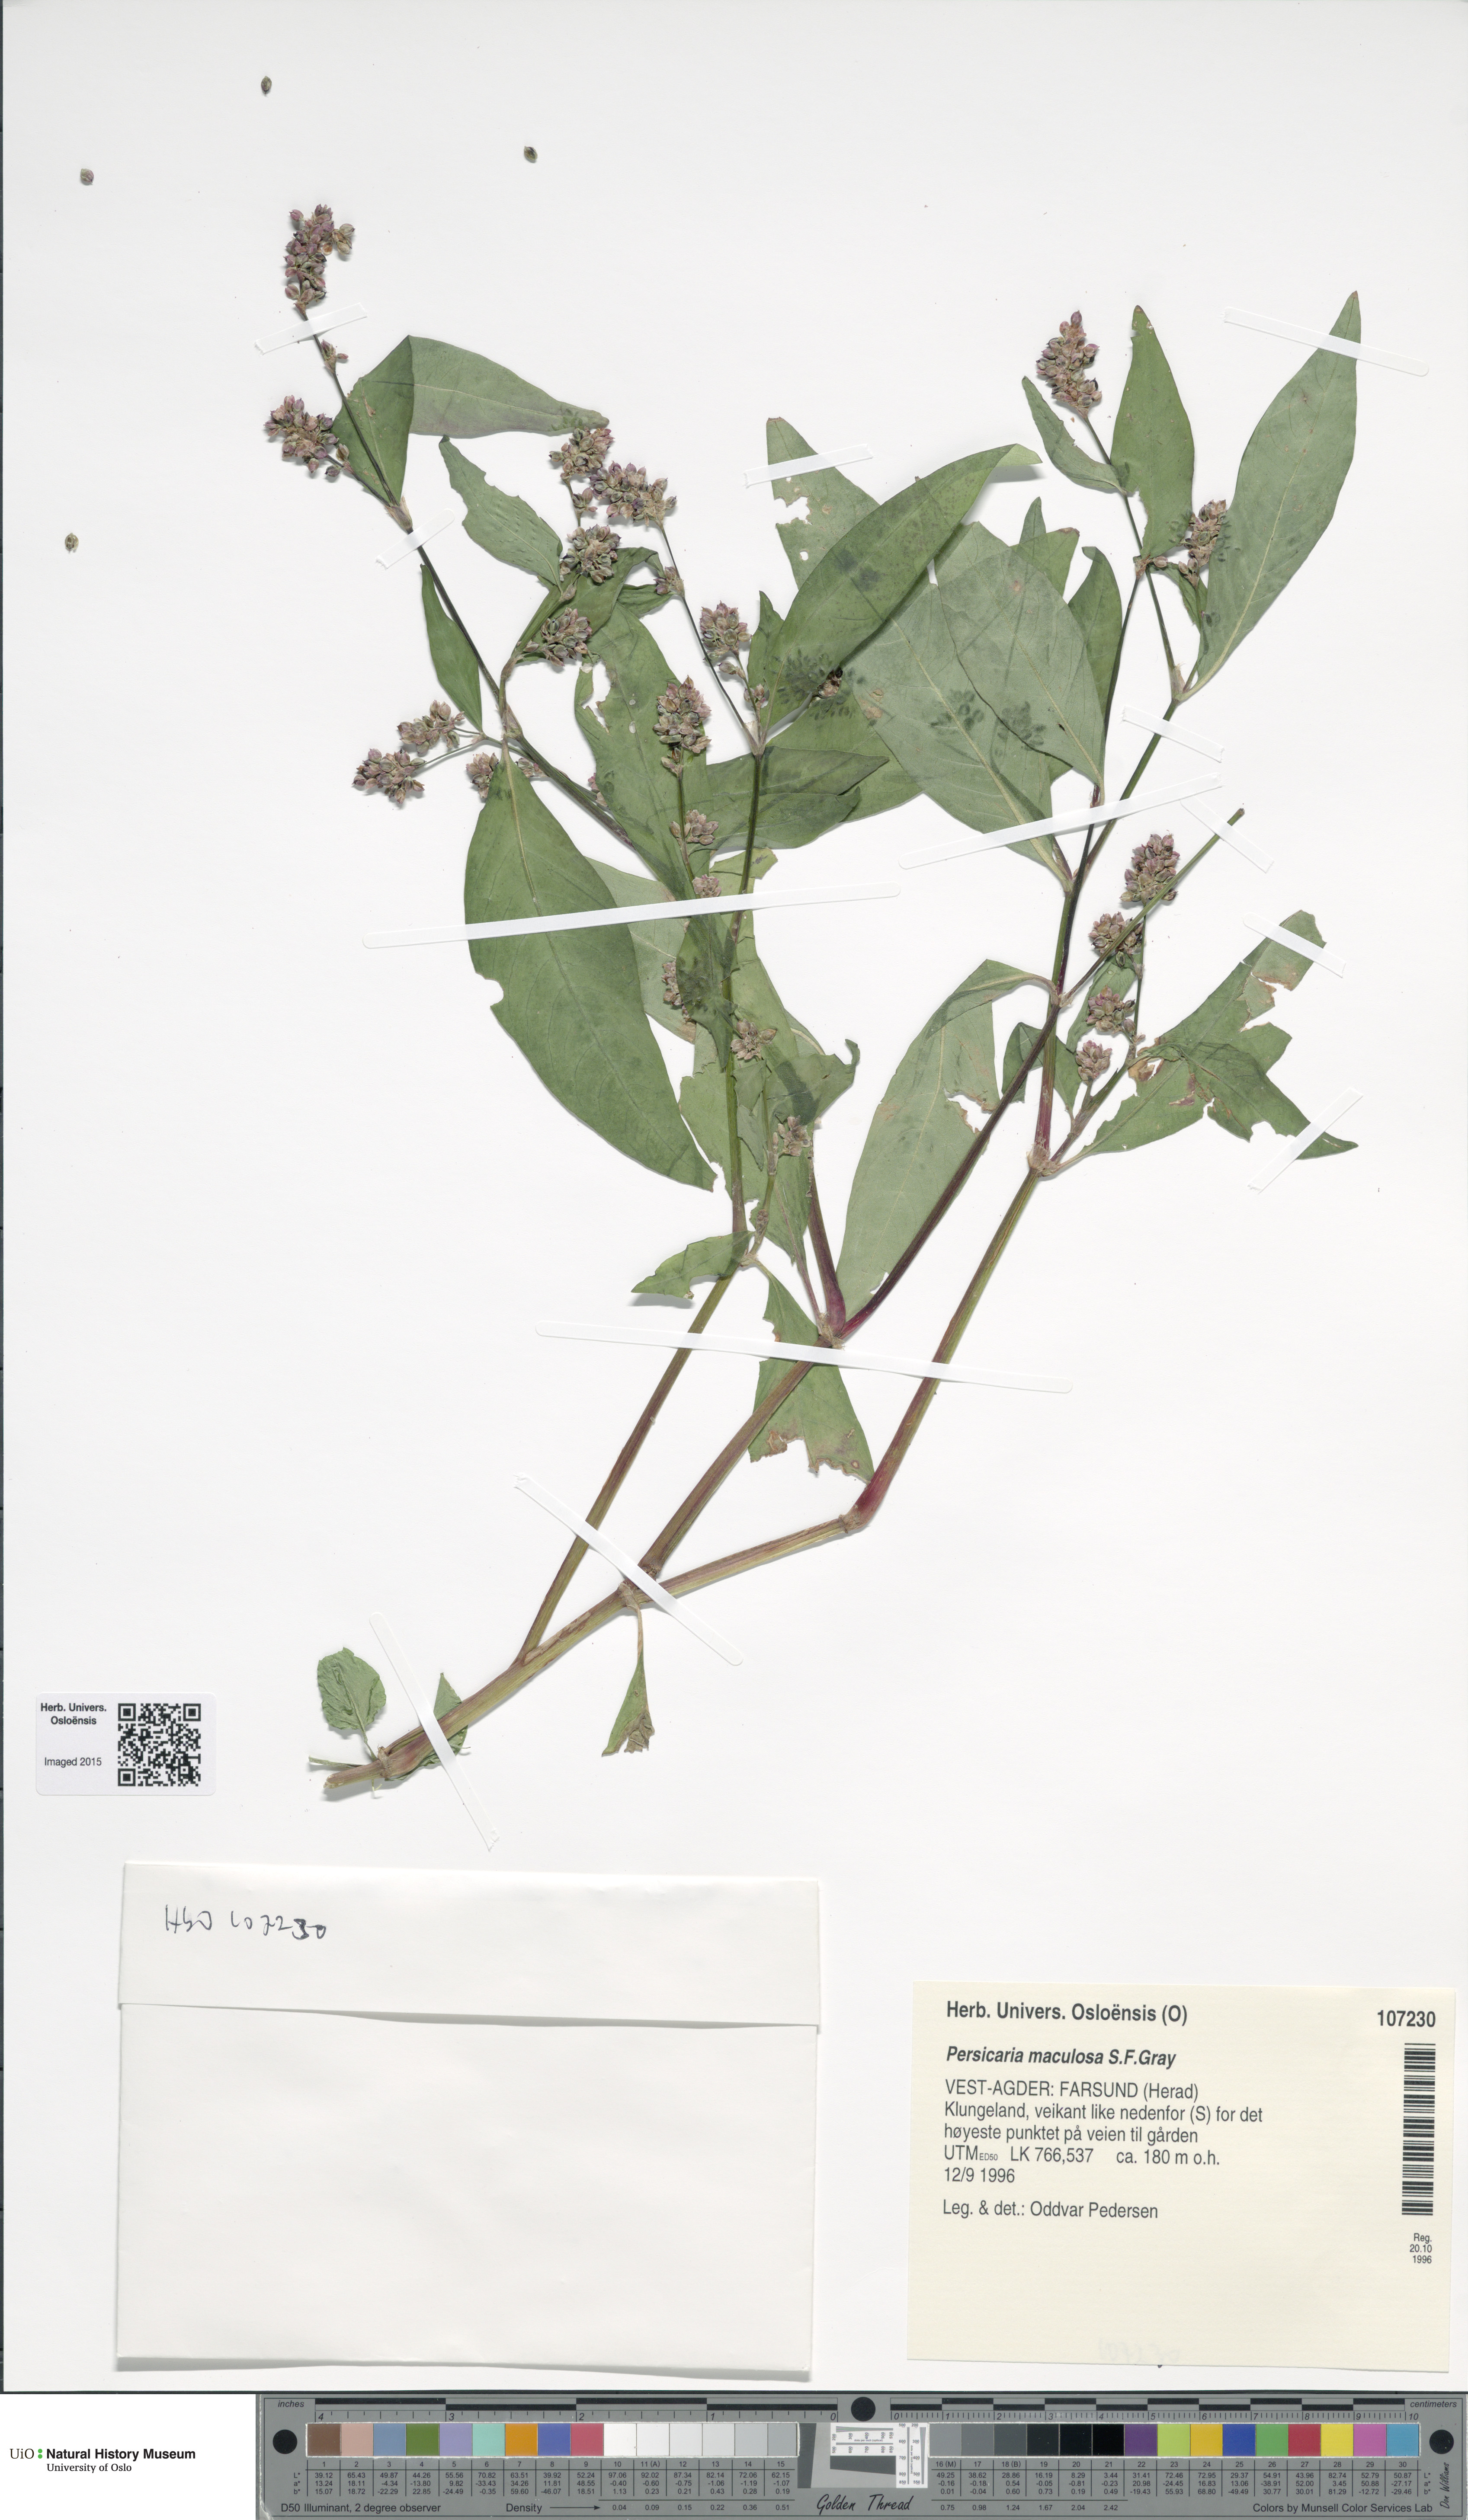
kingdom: Plantae
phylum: Tracheophyta
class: Magnoliopsida
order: Caryophyllales
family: Polygonaceae
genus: Persicaria
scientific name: Persicaria maculosa
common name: Redshank
